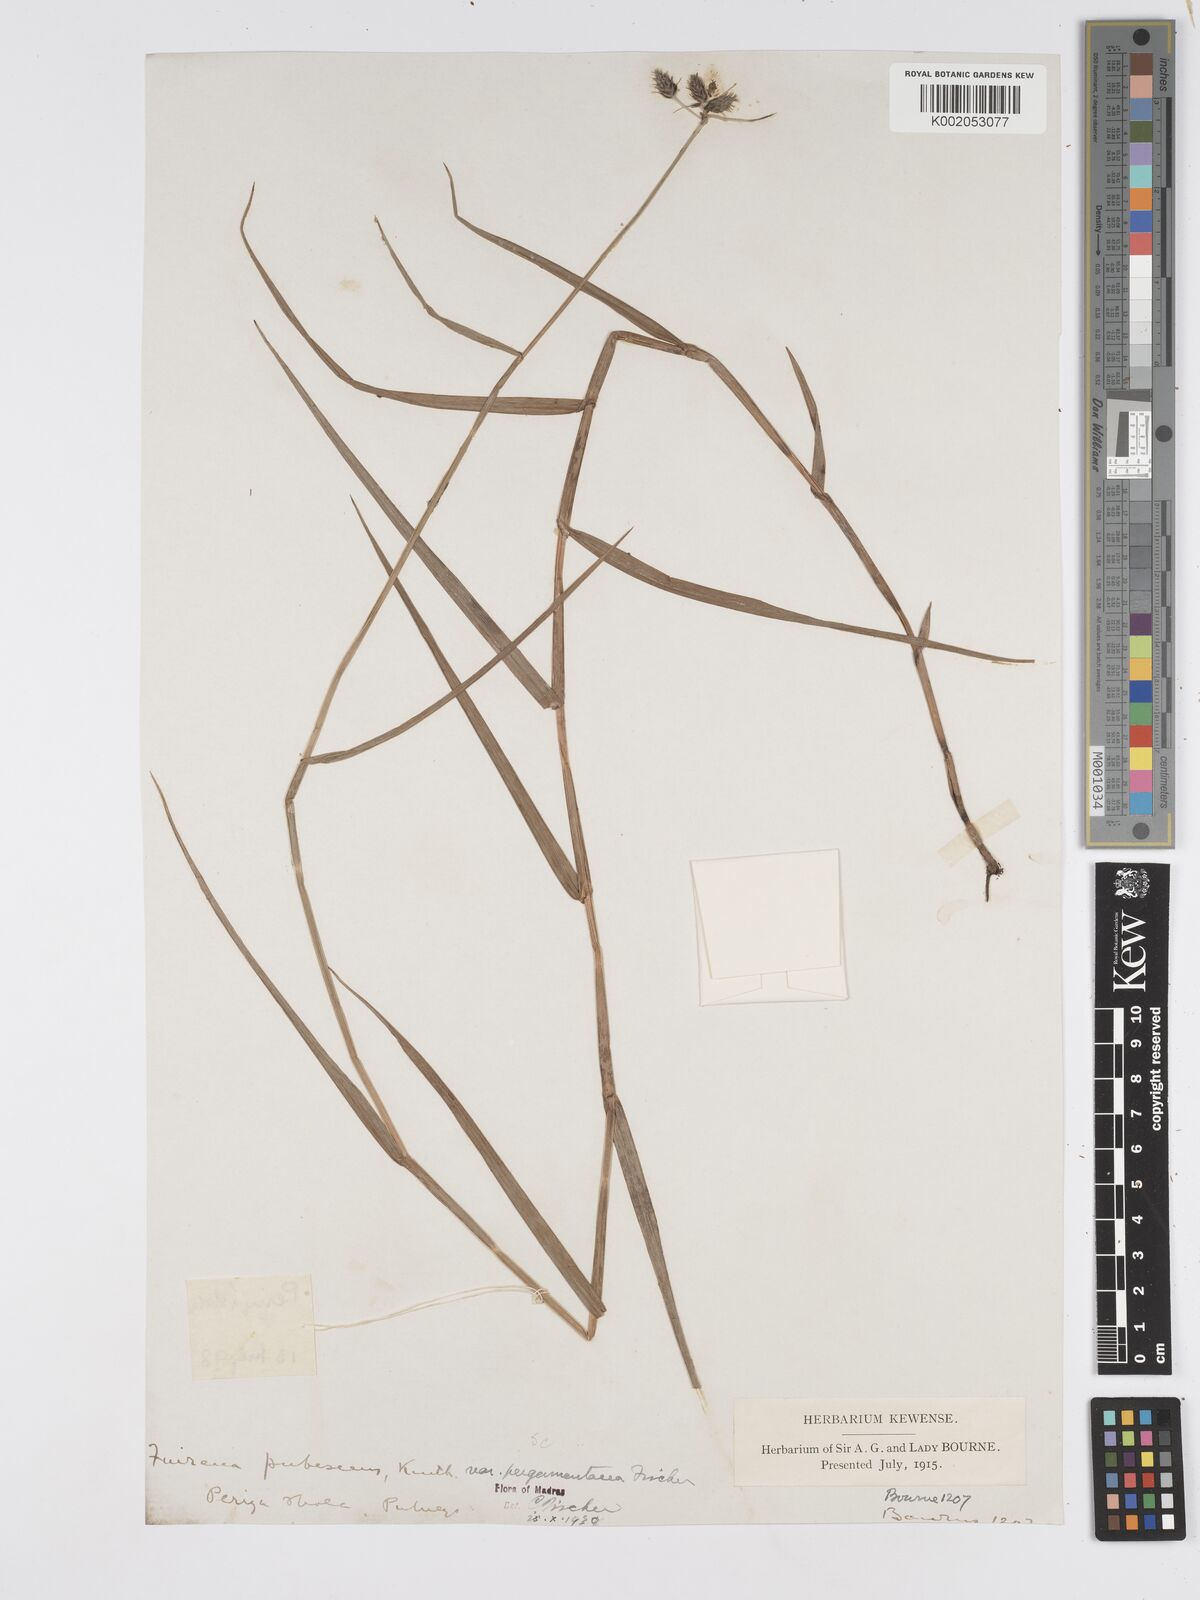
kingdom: Plantae
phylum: Tracheophyta
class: Liliopsida
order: Poales
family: Cyperaceae
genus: Fuirena
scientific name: Fuirena pubescens
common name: Hairy sedge
